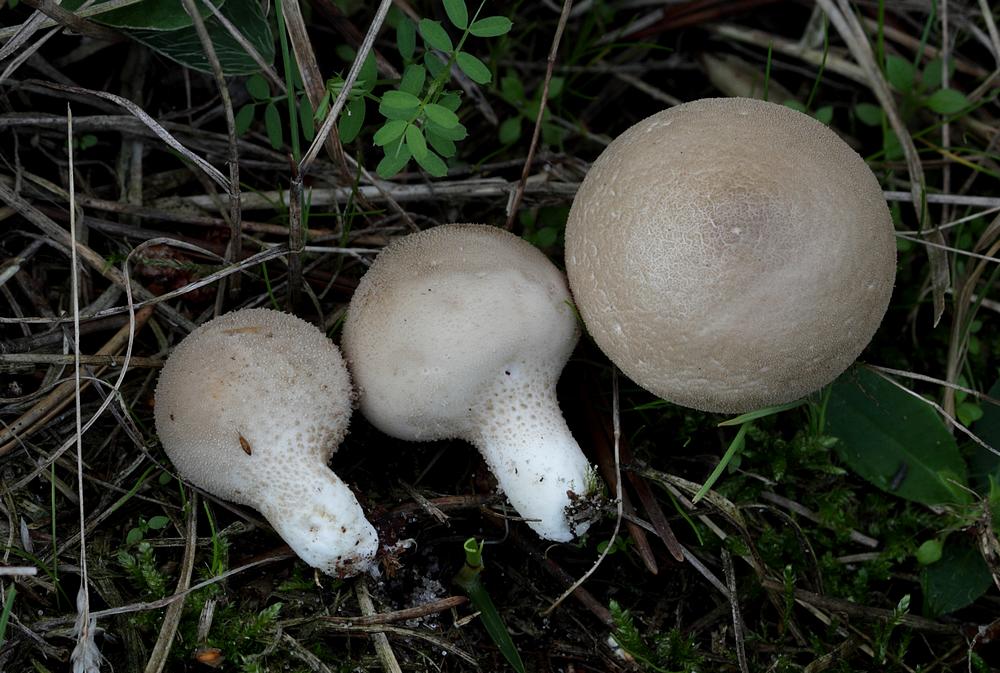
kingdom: Fungi
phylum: Basidiomycota
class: Agaricomycetes
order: Agaricales
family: Lycoperdaceae
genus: Lycoperdon
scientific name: Lycoperdon lividum
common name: mark-støvbold
